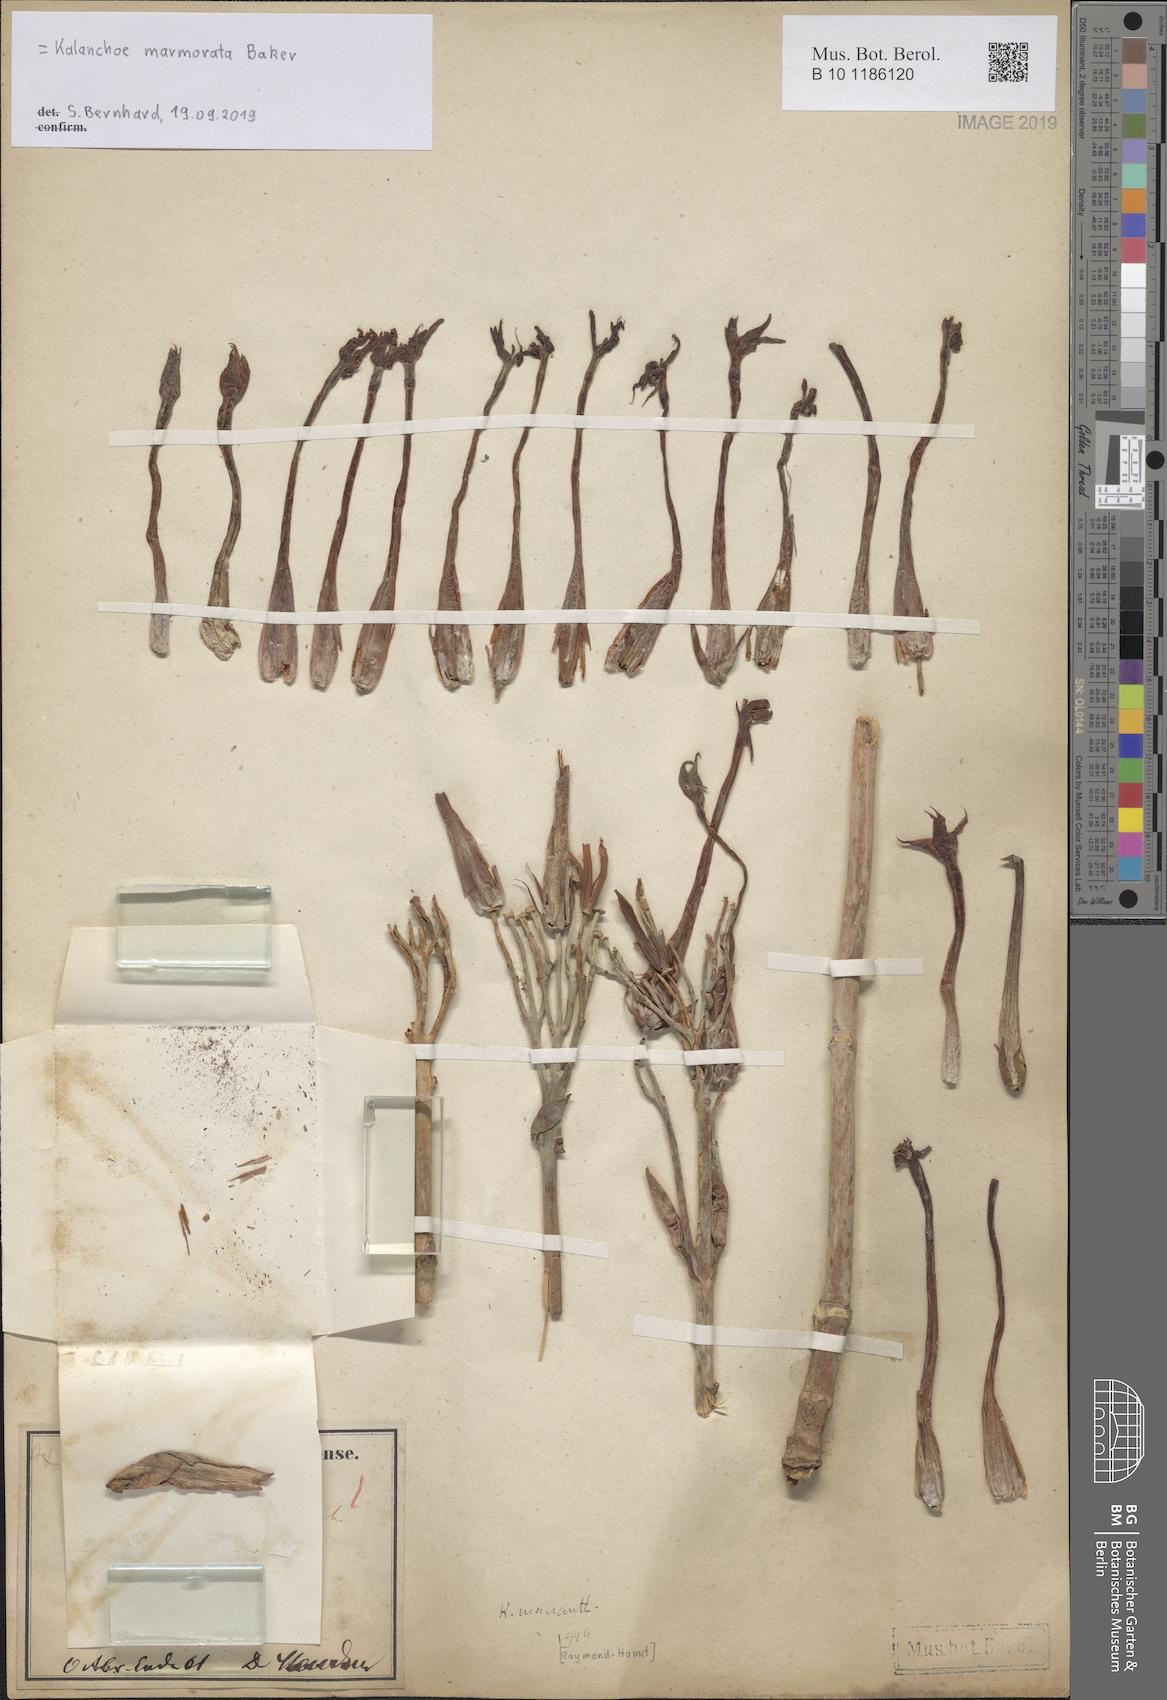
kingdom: Plantae
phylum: Tracheophyta
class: Magnoliopsida
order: Saxifragales
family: Crassulaceae
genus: Kalanchoe
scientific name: Kalanchoe marmorata
